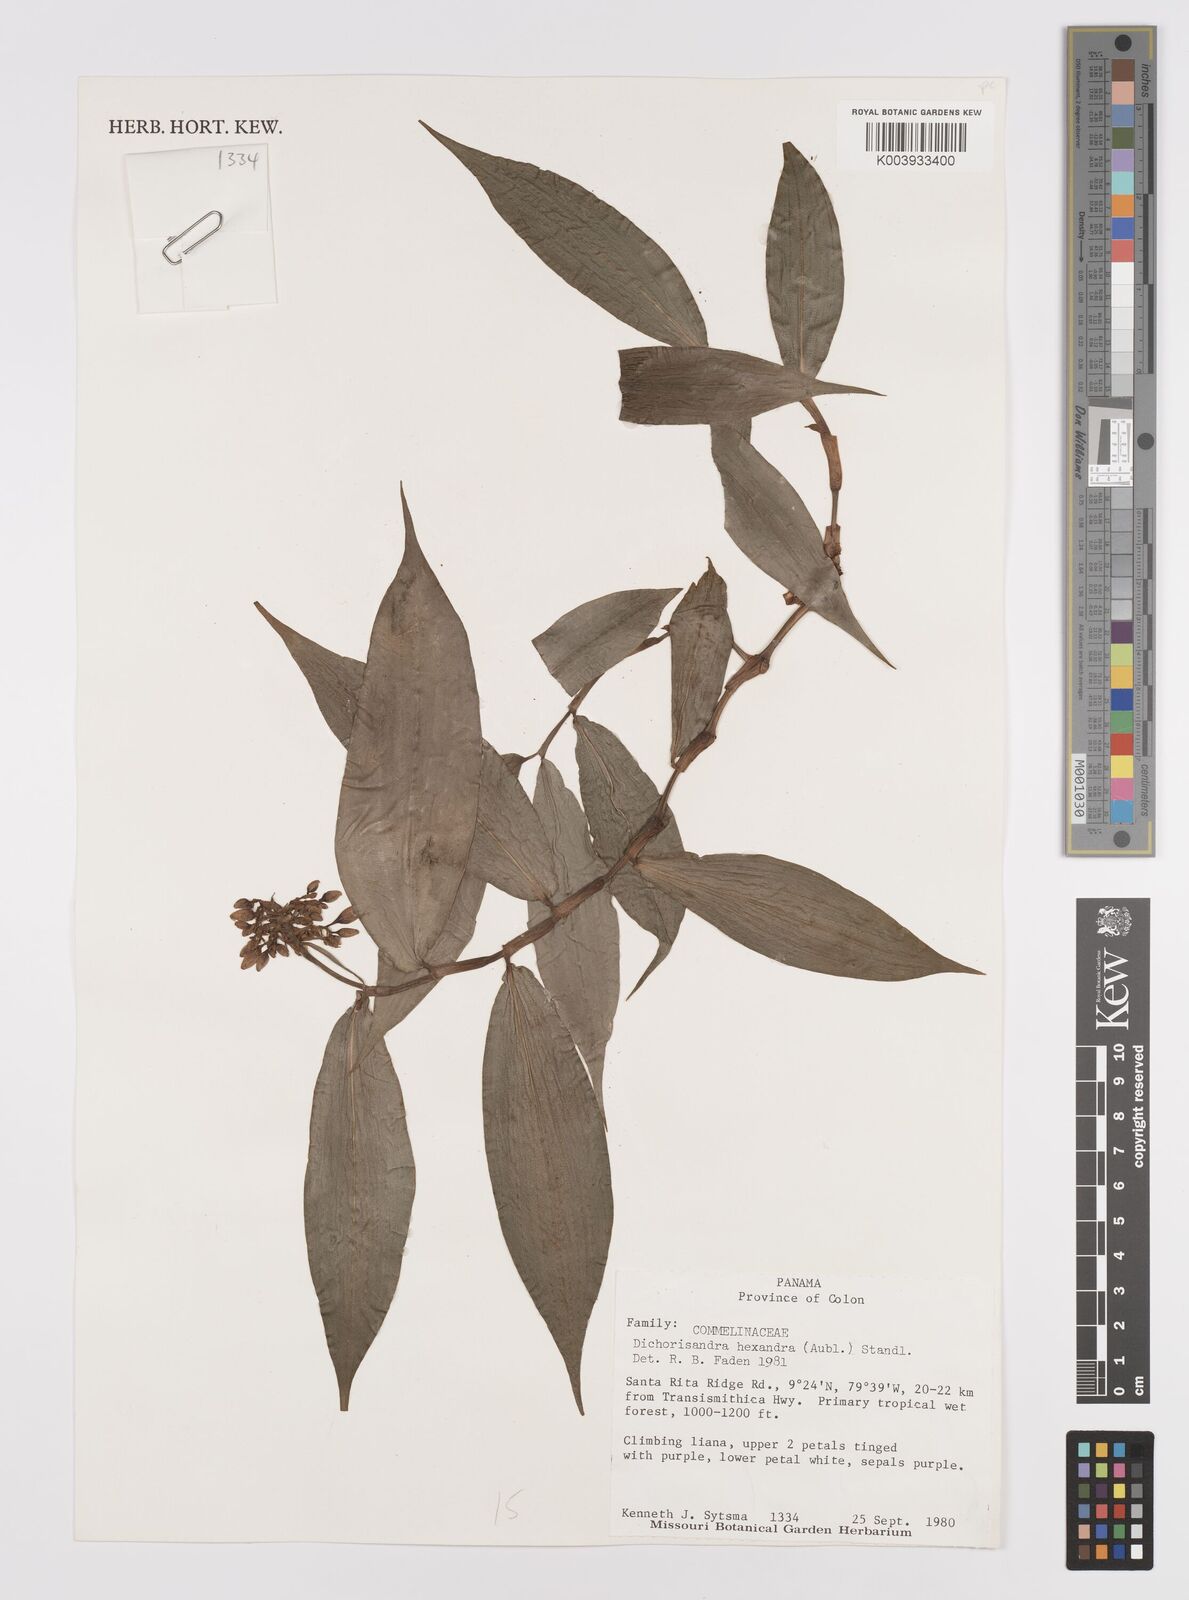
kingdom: Plantae
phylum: Tracheophyta
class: Liliopsida
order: Commelinales
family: Commelinaceae
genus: Dichorisandra
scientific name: Dichorisandra hexandra
